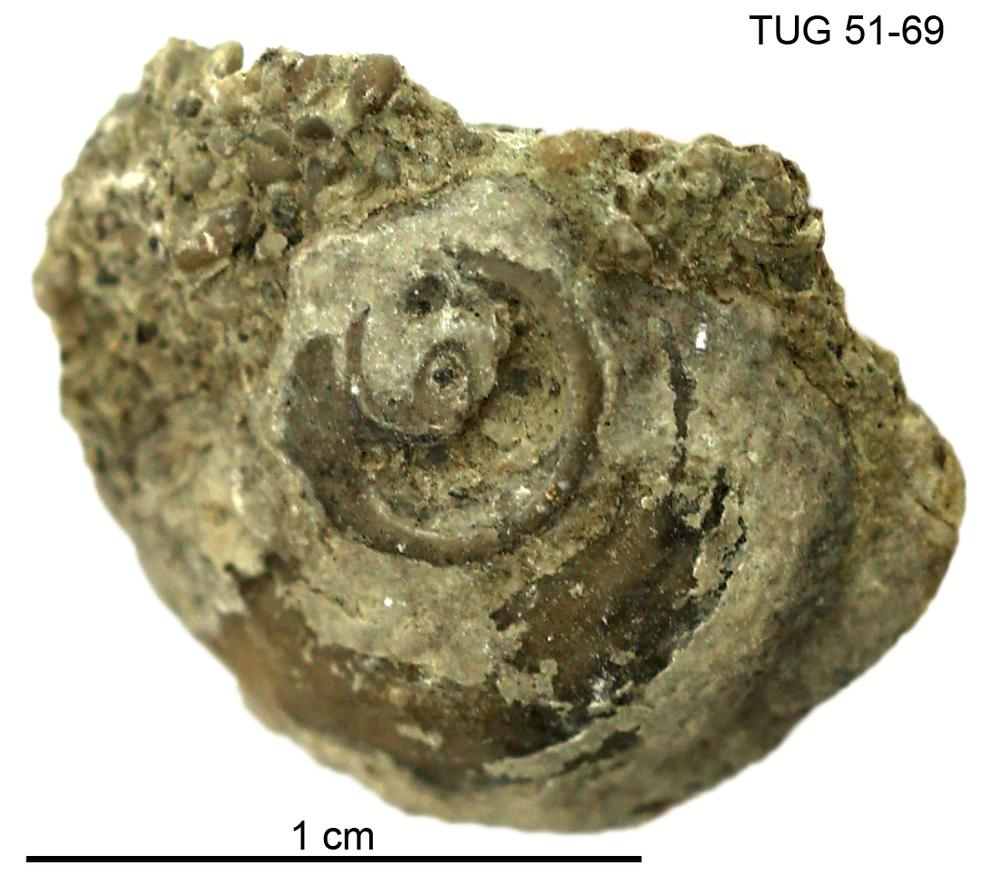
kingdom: Animalia
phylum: Mollusca
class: Gastropoda
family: Euomphalidae
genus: Poleumita
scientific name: Poleumita
